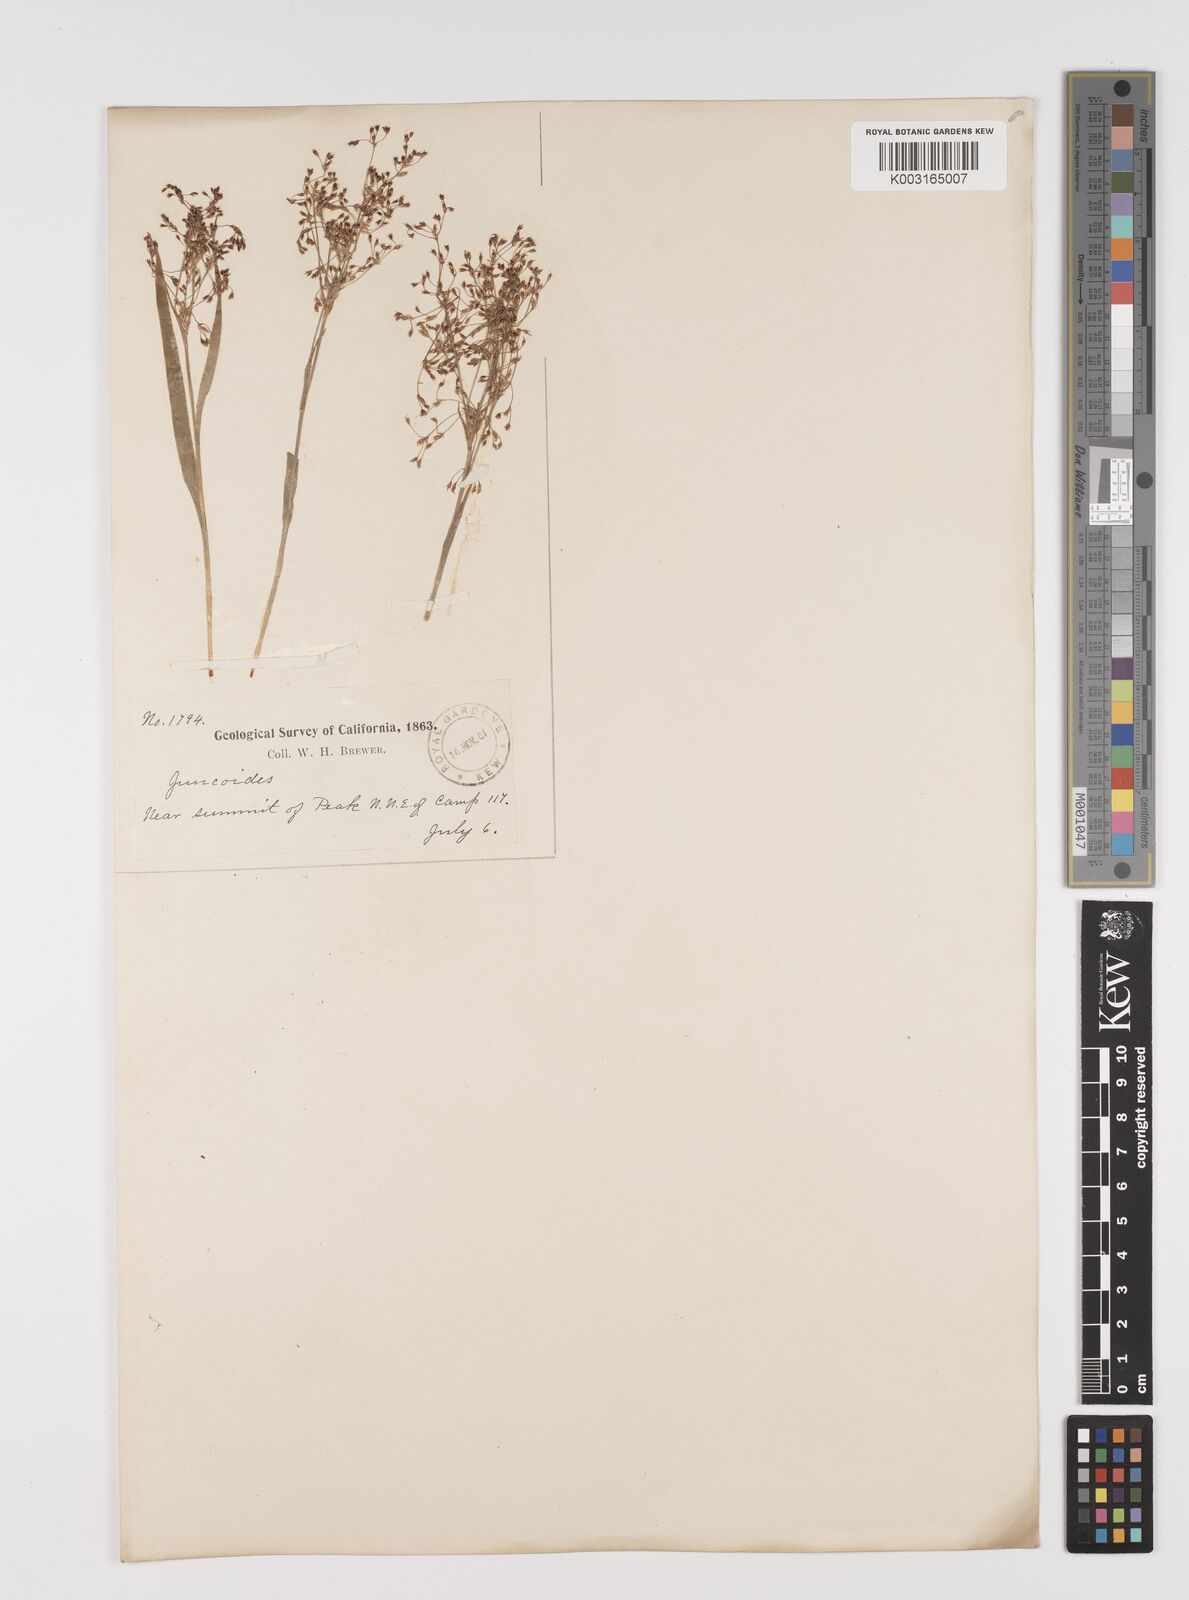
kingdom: Plantae
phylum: Tracheophyta
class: Liliopsida
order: Poales
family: Juncaceae
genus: Luzula
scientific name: Luzula parviflora
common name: Millet woodrush
